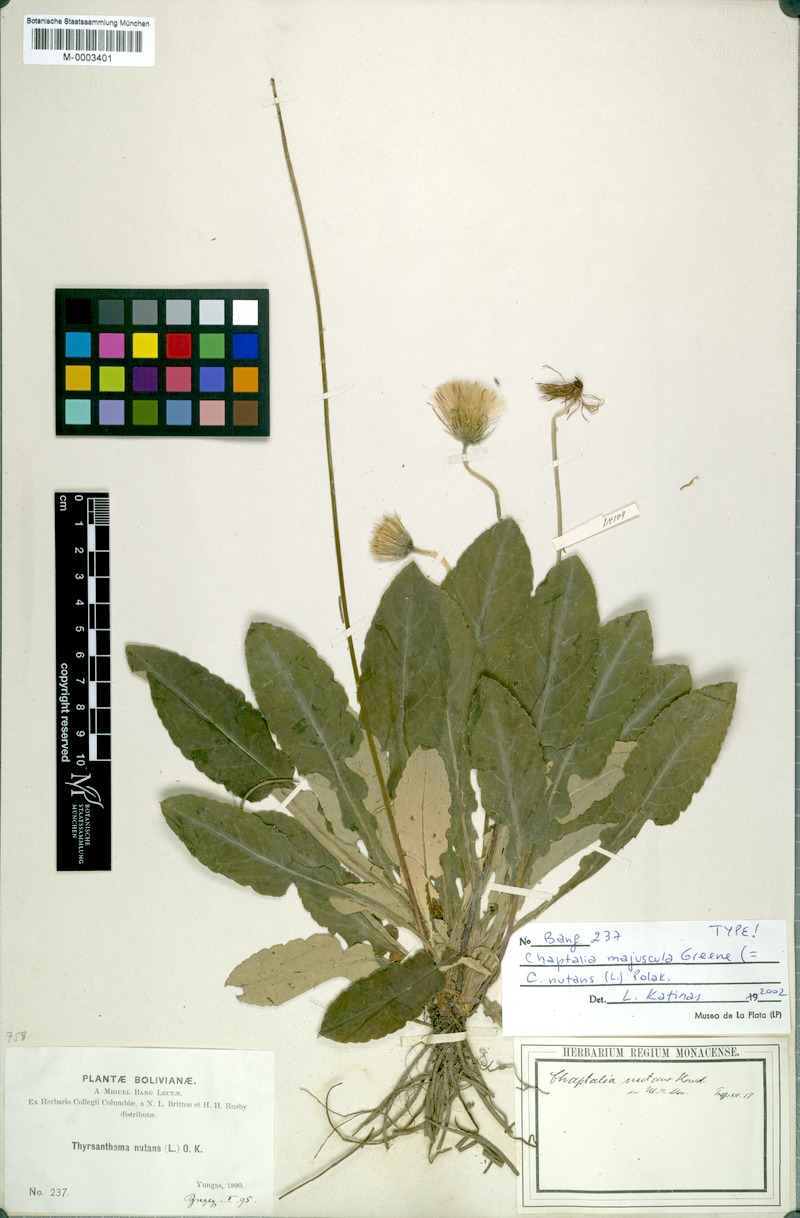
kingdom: Plantae
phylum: Tracheophyta
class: Magnoliopsida
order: Asterales
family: Asteraceae
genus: Chaptalia
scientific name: Chaptalia nutans
